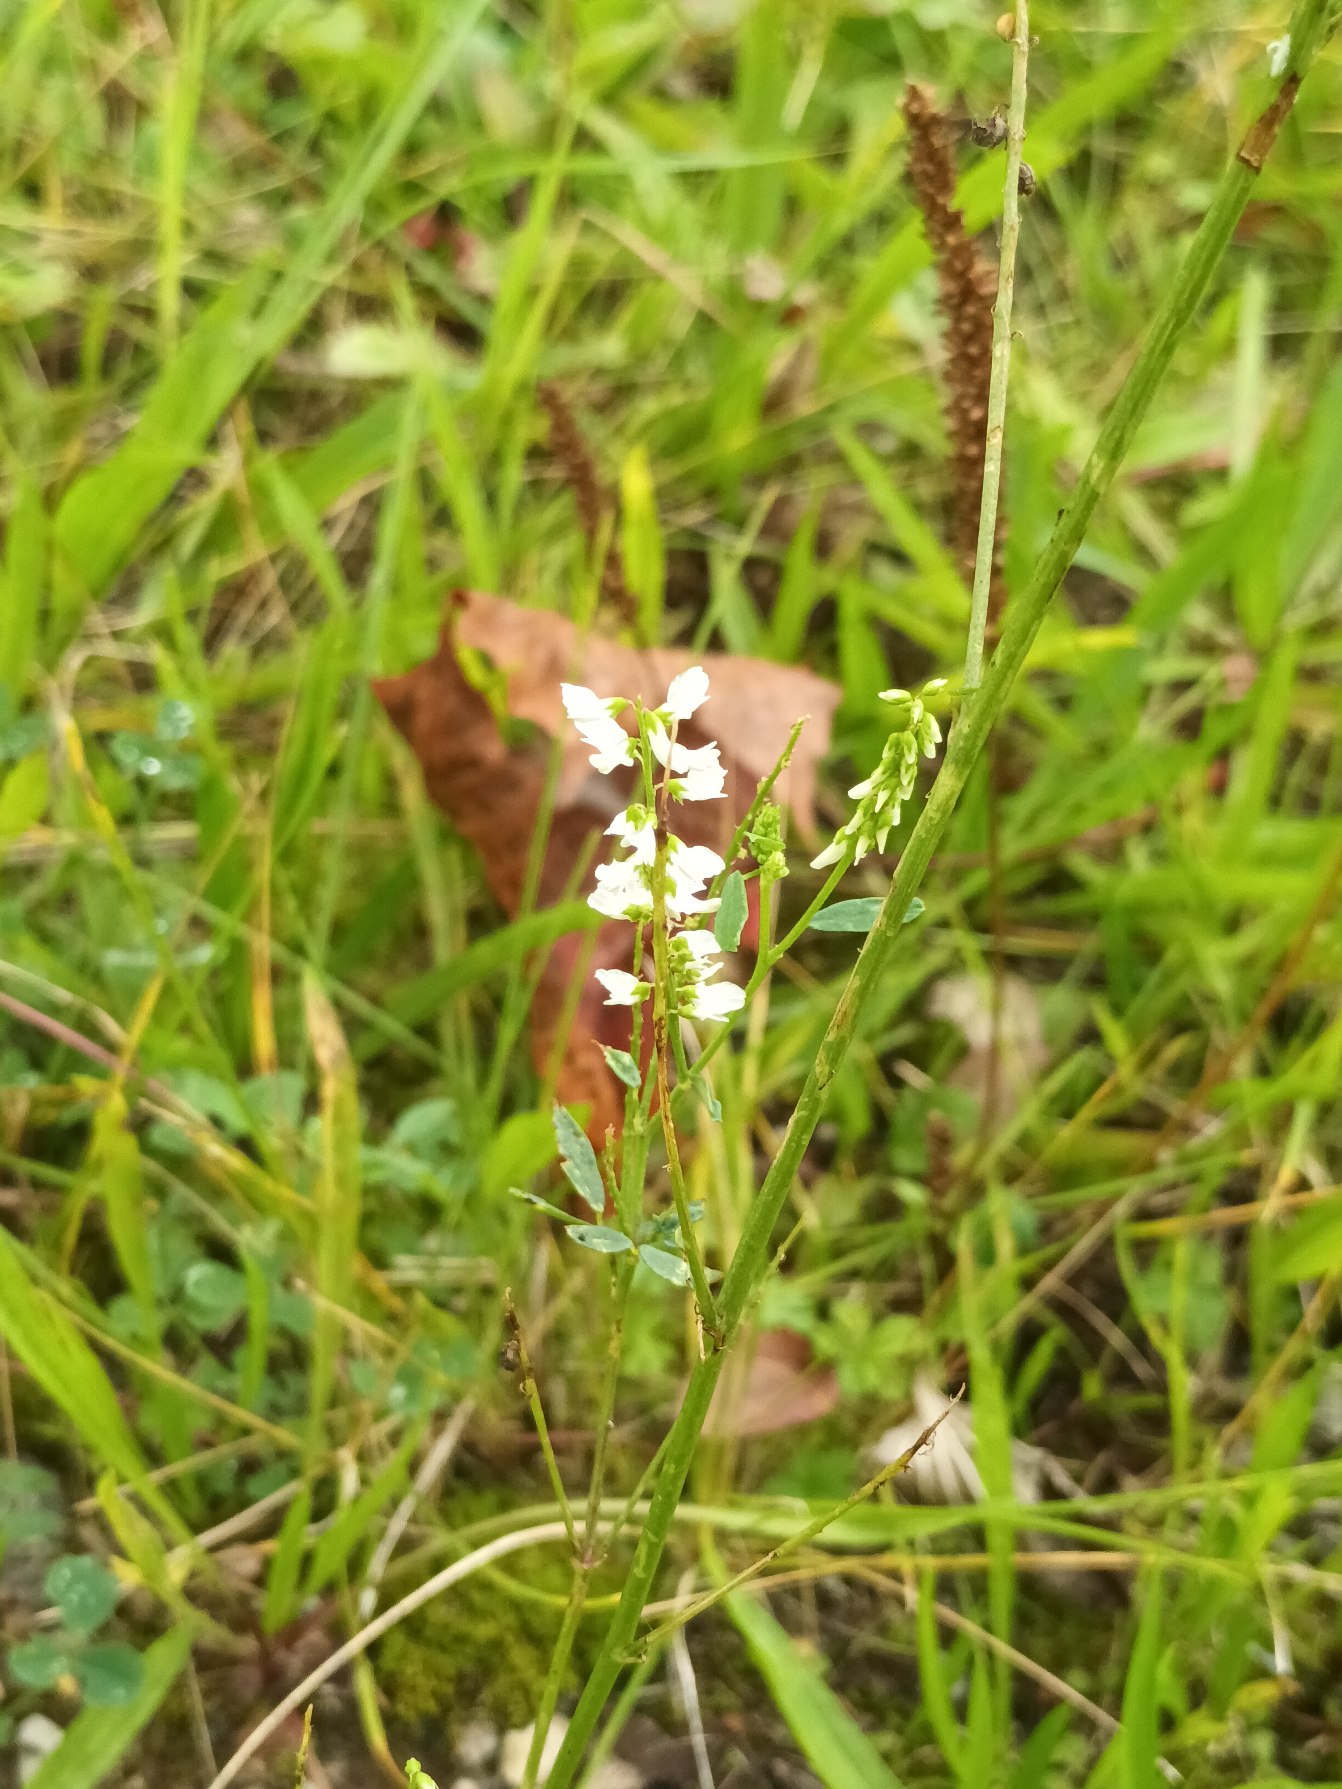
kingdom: Plantae
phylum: Tracheophyta
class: Magnoliopsida
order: Fabales
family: Fabaceae
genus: Melilotus
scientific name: Melilotus albus
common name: Hvid stenkløver
